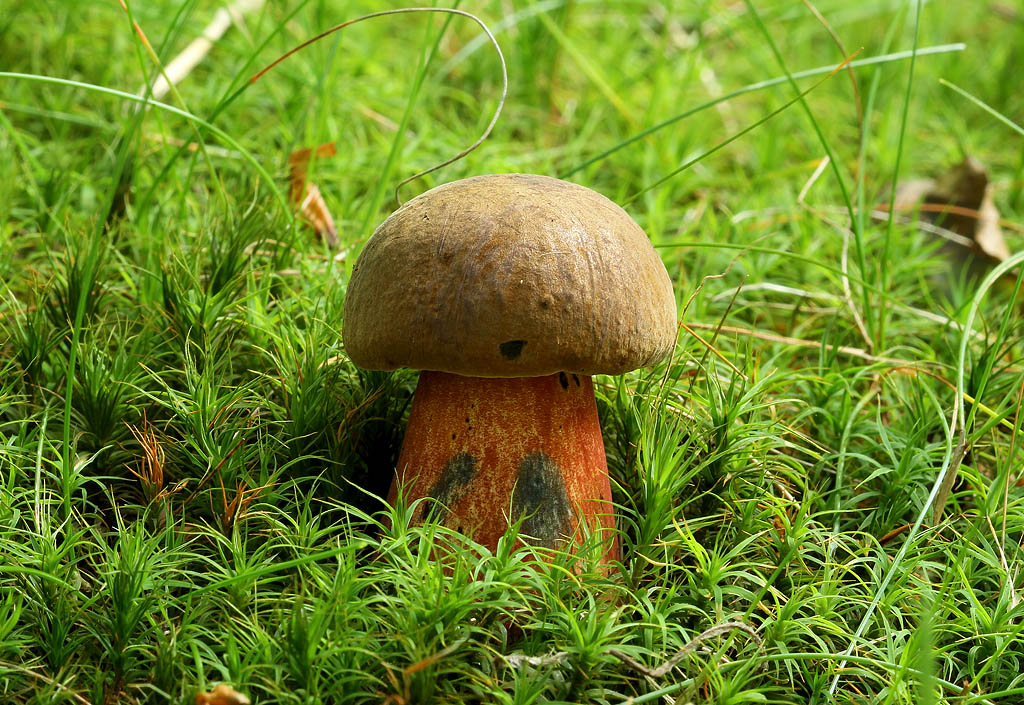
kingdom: Fungi
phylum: Basidiomycota
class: Agaricomycetes
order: Boletales
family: Boletaceae
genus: Neoboletus
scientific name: Neoboletus erythropus
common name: punktstokket indigorørhat
